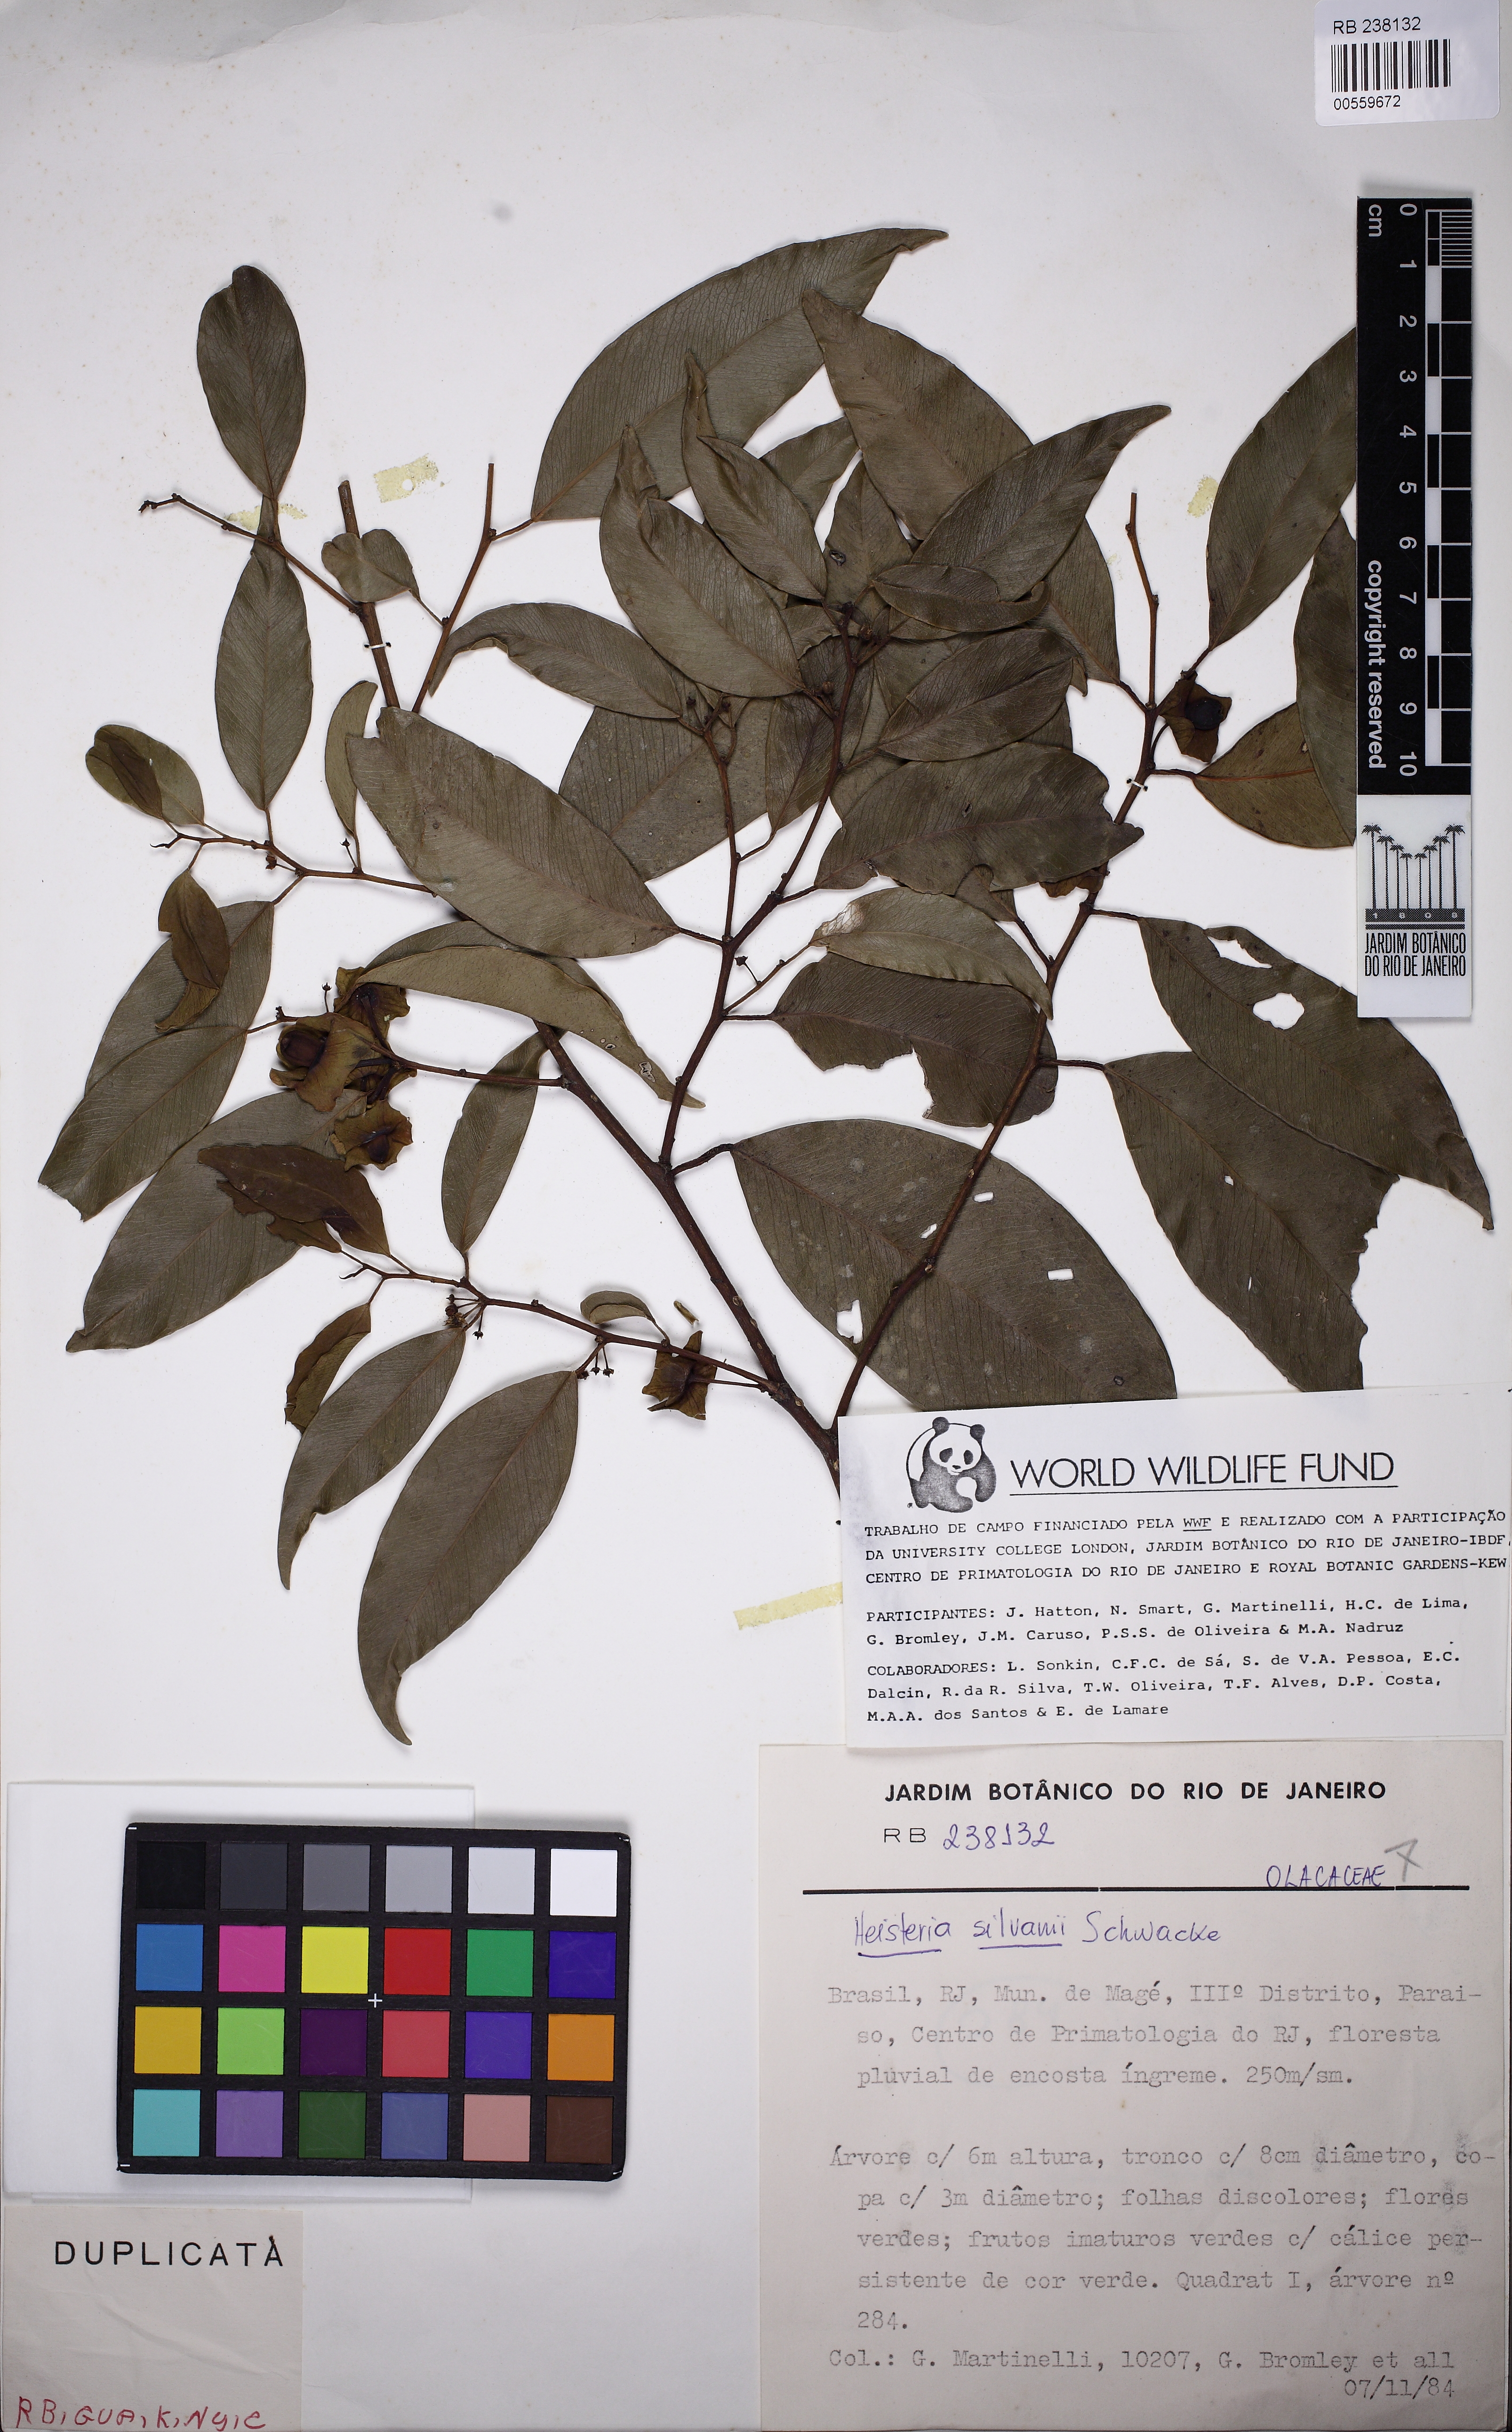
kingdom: Plantae
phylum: Tracheophyta
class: Magnoliopsida
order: Santalales
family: Erythropalaceae
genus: Heisteria
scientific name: Heisteria silvianii
